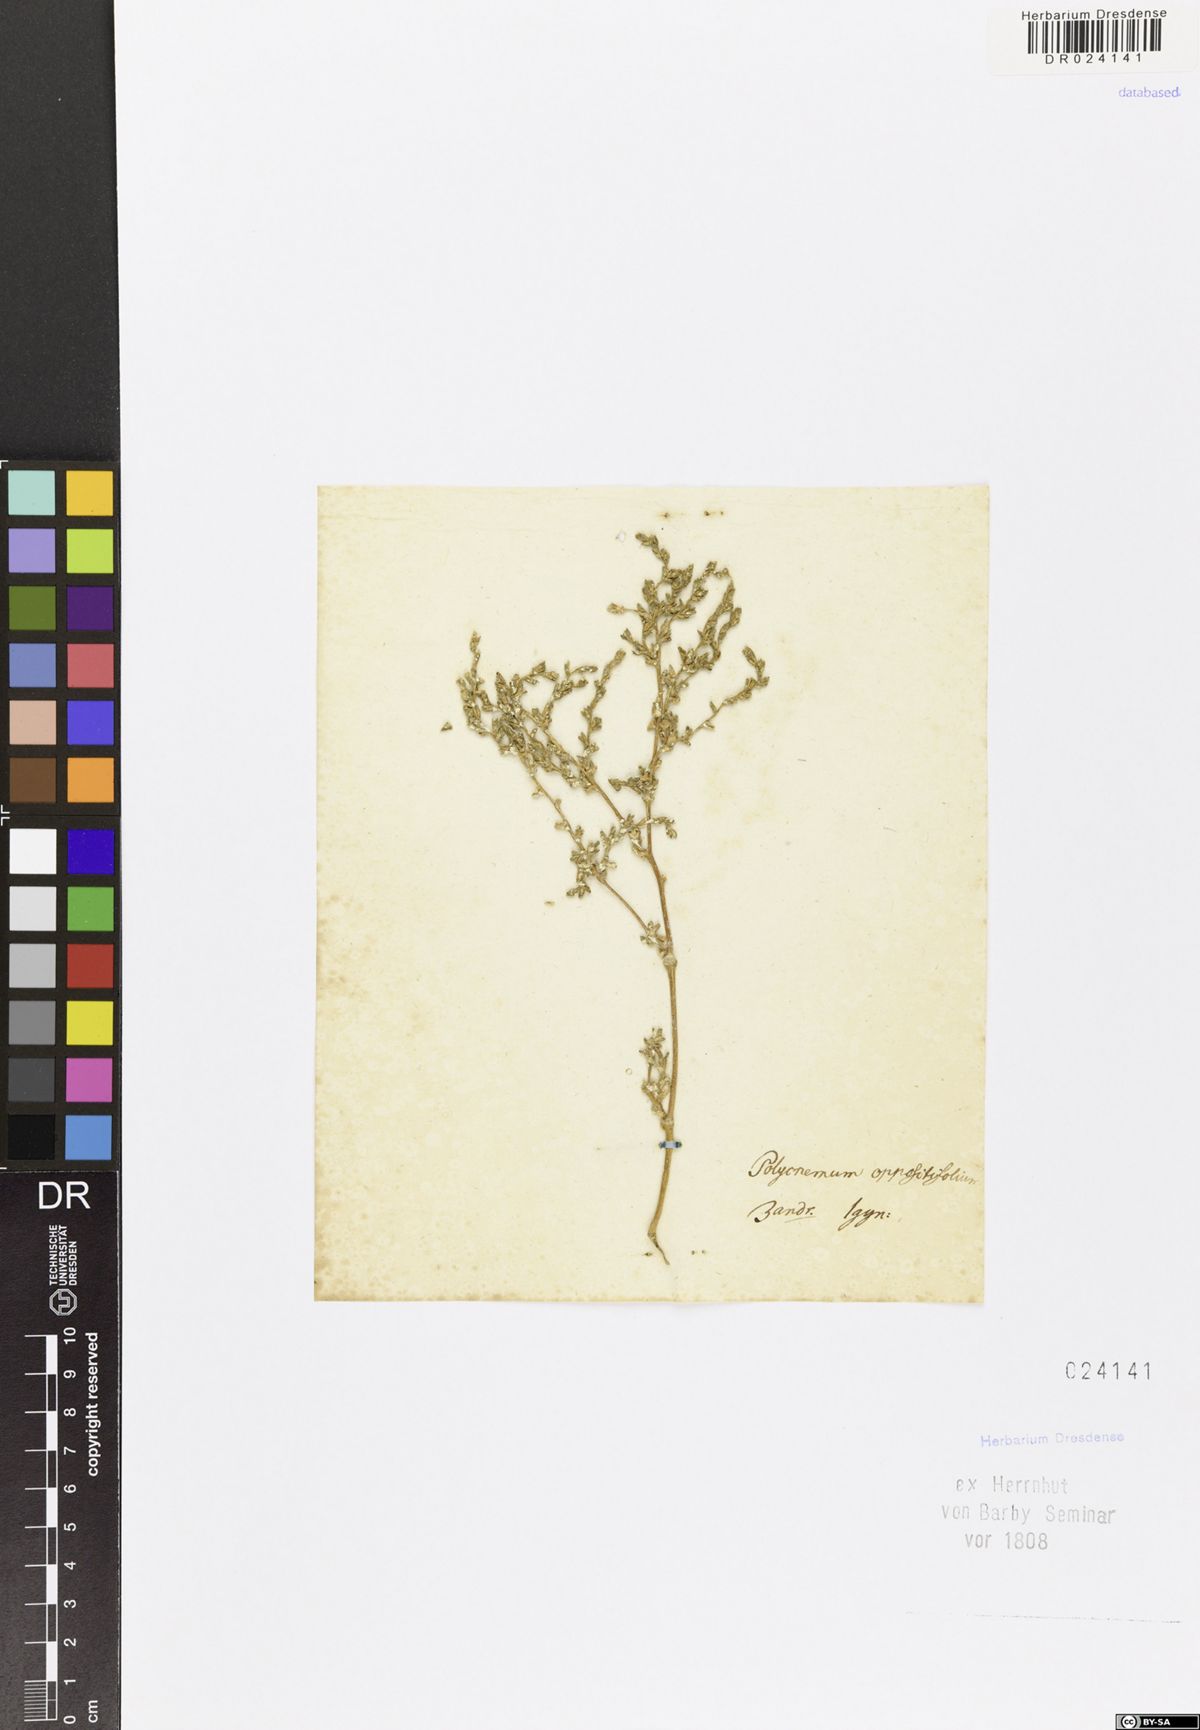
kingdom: Plantae
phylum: Tracheophyta
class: Magnoliopsida
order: Caryophyllales
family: Amaranthaceae
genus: Petrosimonia
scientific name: Petrosimonia oppositifolia
